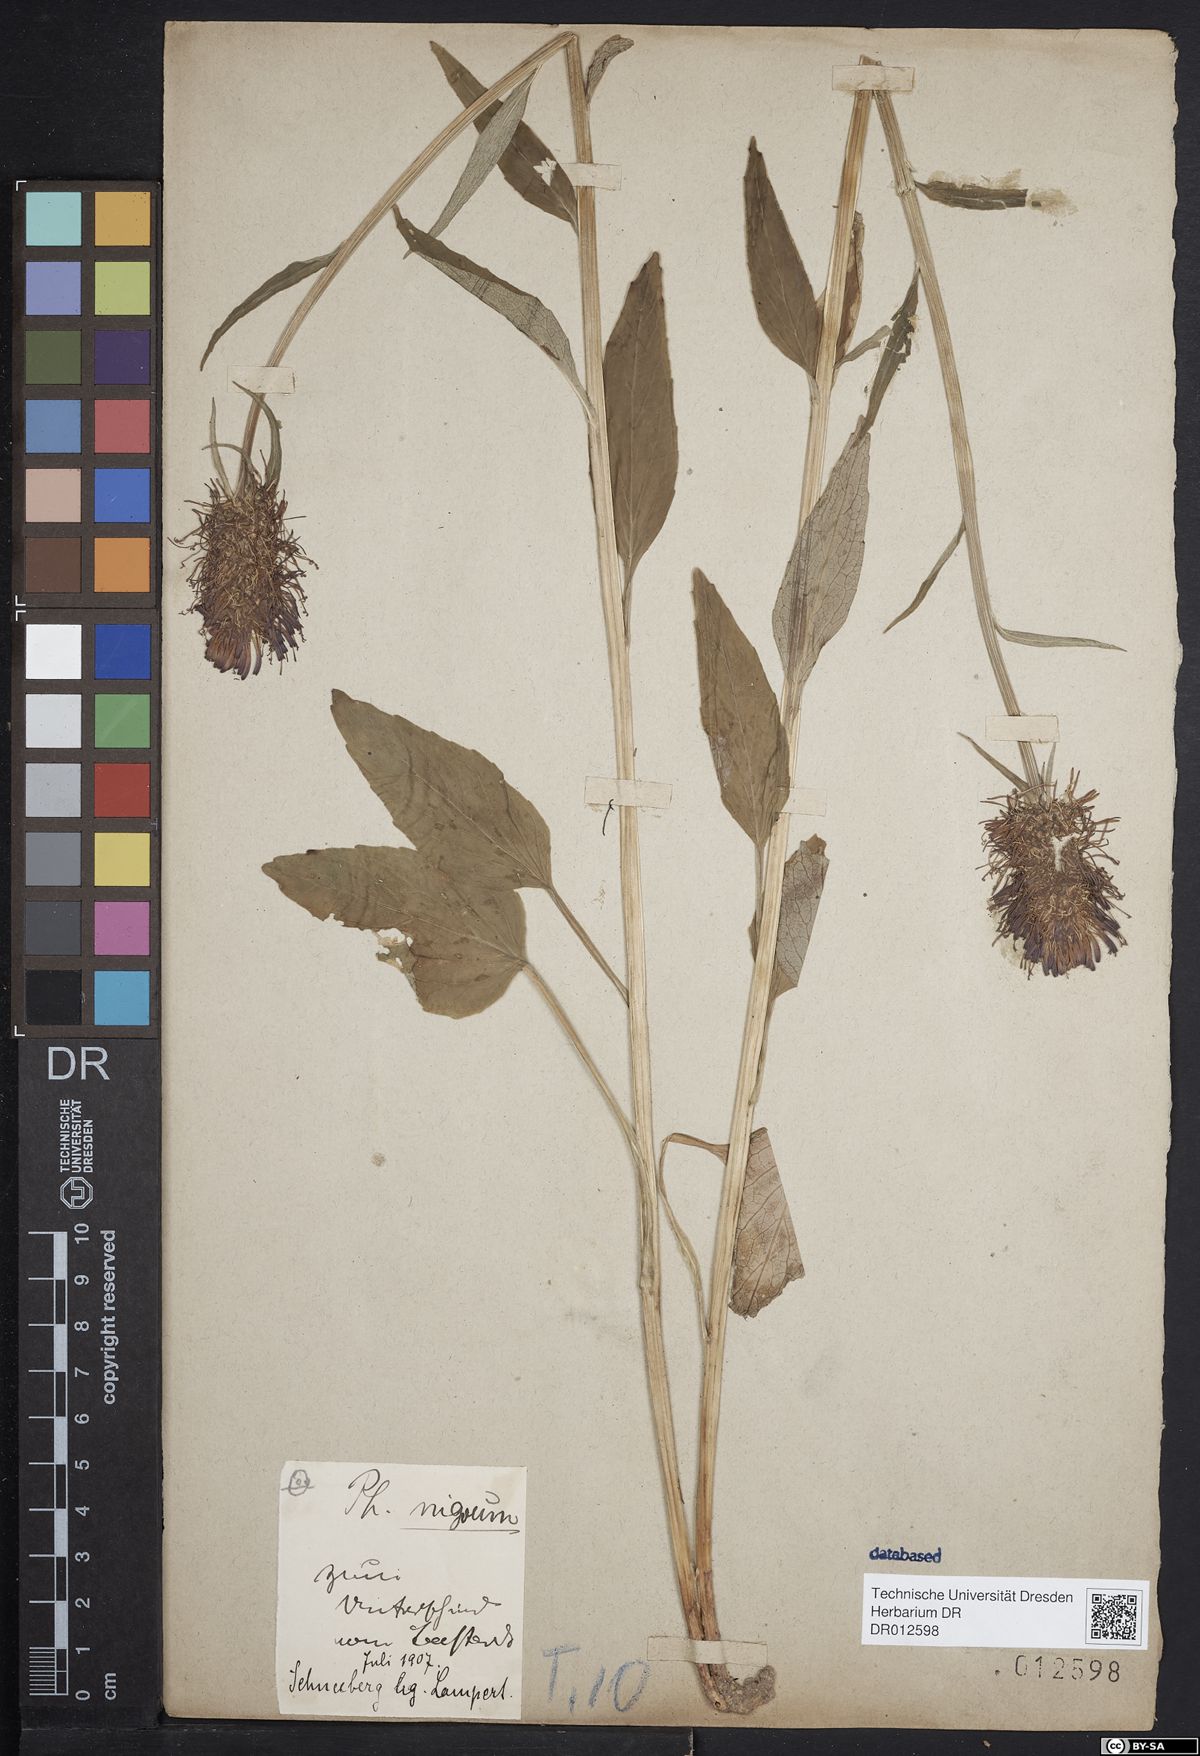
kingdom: Plantae
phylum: Tracheophyta
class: Magnoliopsida
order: Asterales
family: Campanulaceae
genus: Phyteuma
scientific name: Phyteuma nigrum
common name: Black rampion
